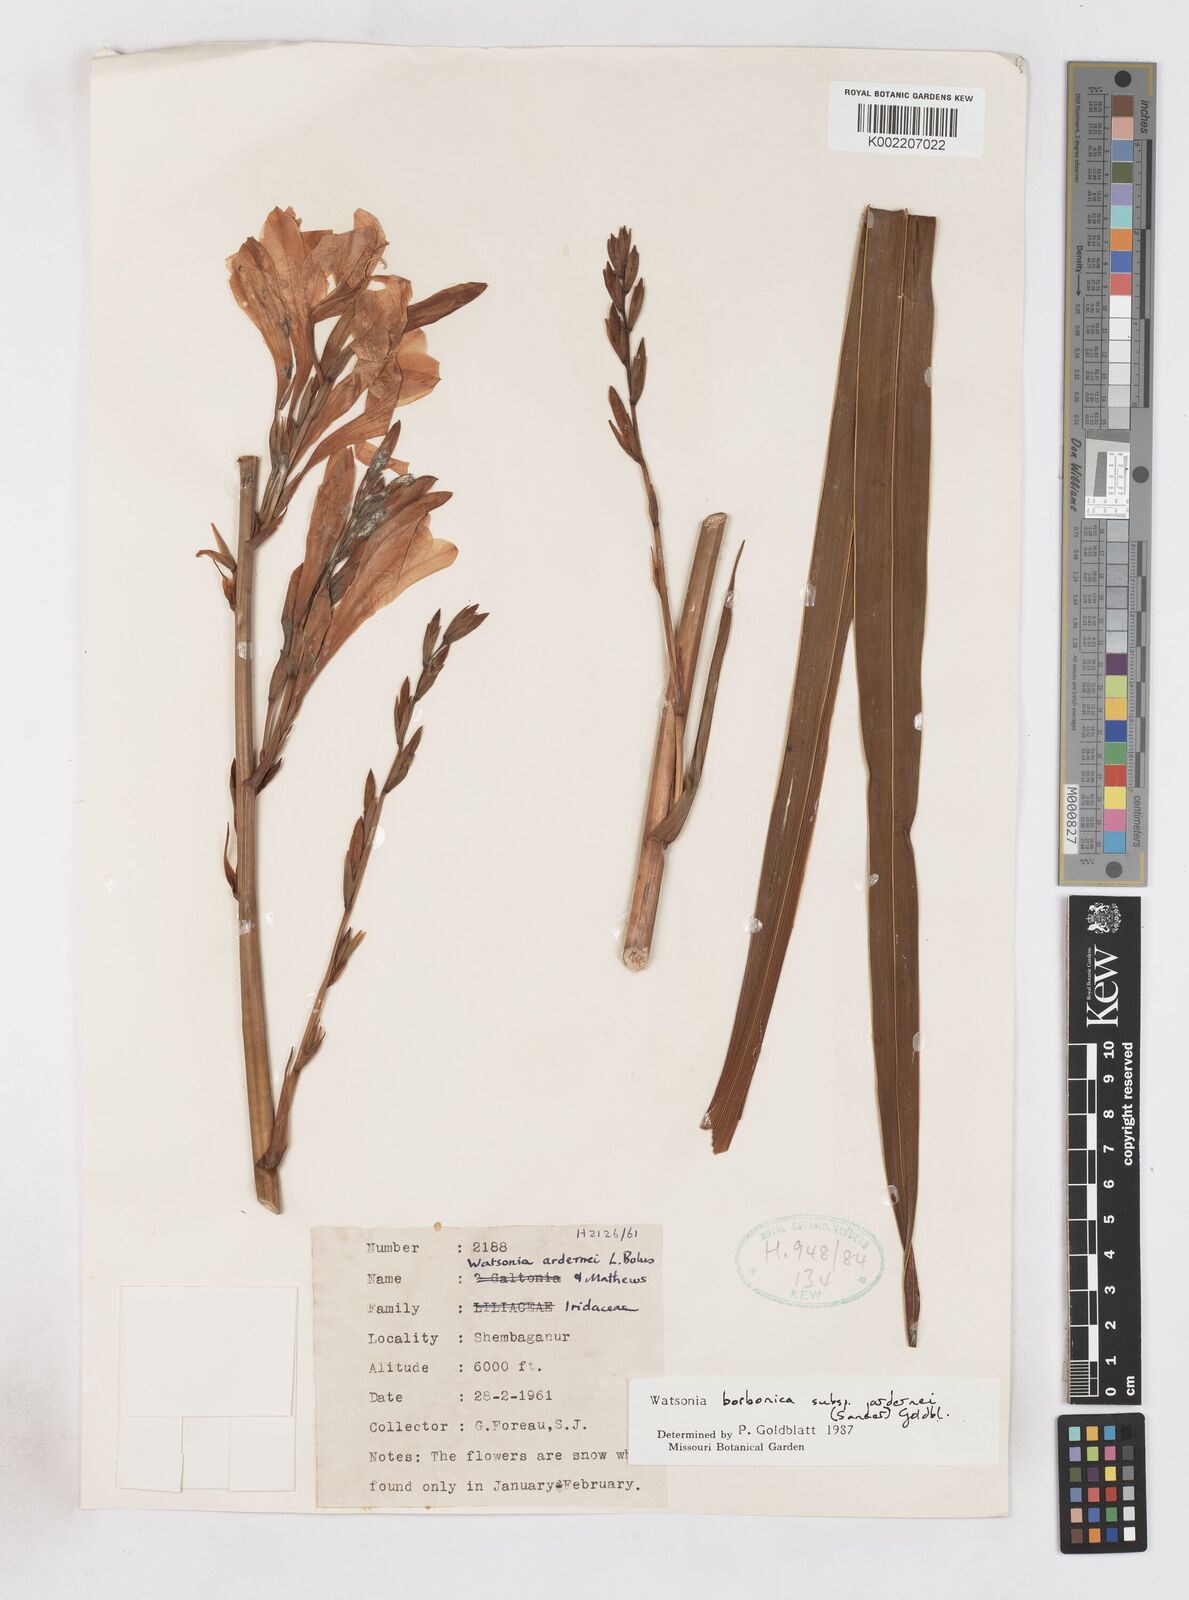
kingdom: Plantae
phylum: Tracheophyta
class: Liliopsida
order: Asparagales
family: Iridaceae
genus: Watsonia
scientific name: Watsonia borbonica
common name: Bugle-lily
